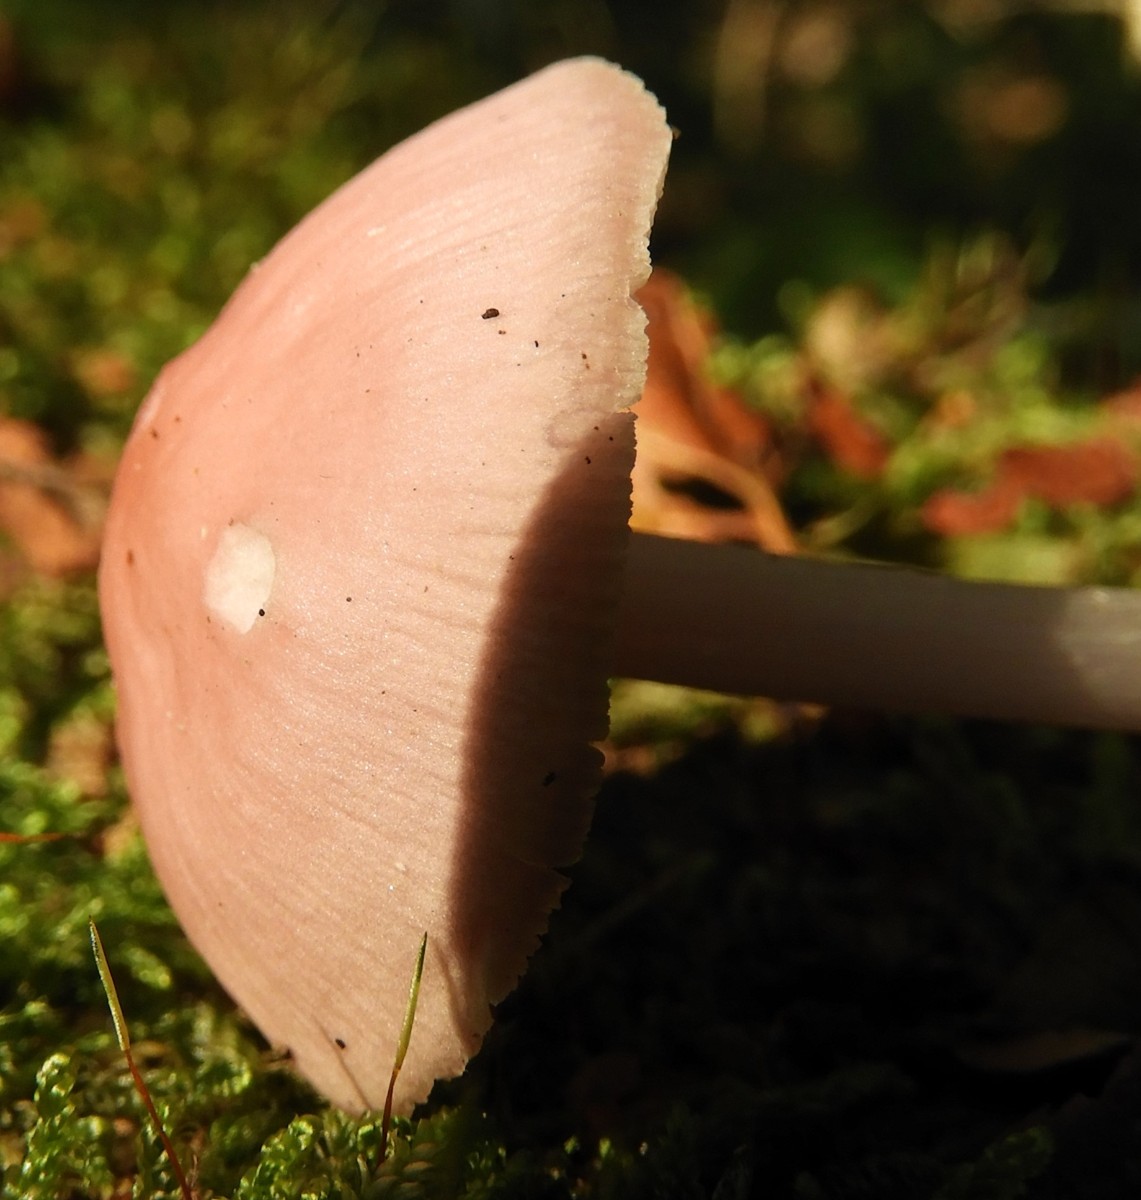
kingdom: Fungi
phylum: Basidiomycota
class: Agaricomycetes
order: Agaricales
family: Mycenaceae
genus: Mycena
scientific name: Mycena rosea
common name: rosa huesvamp
